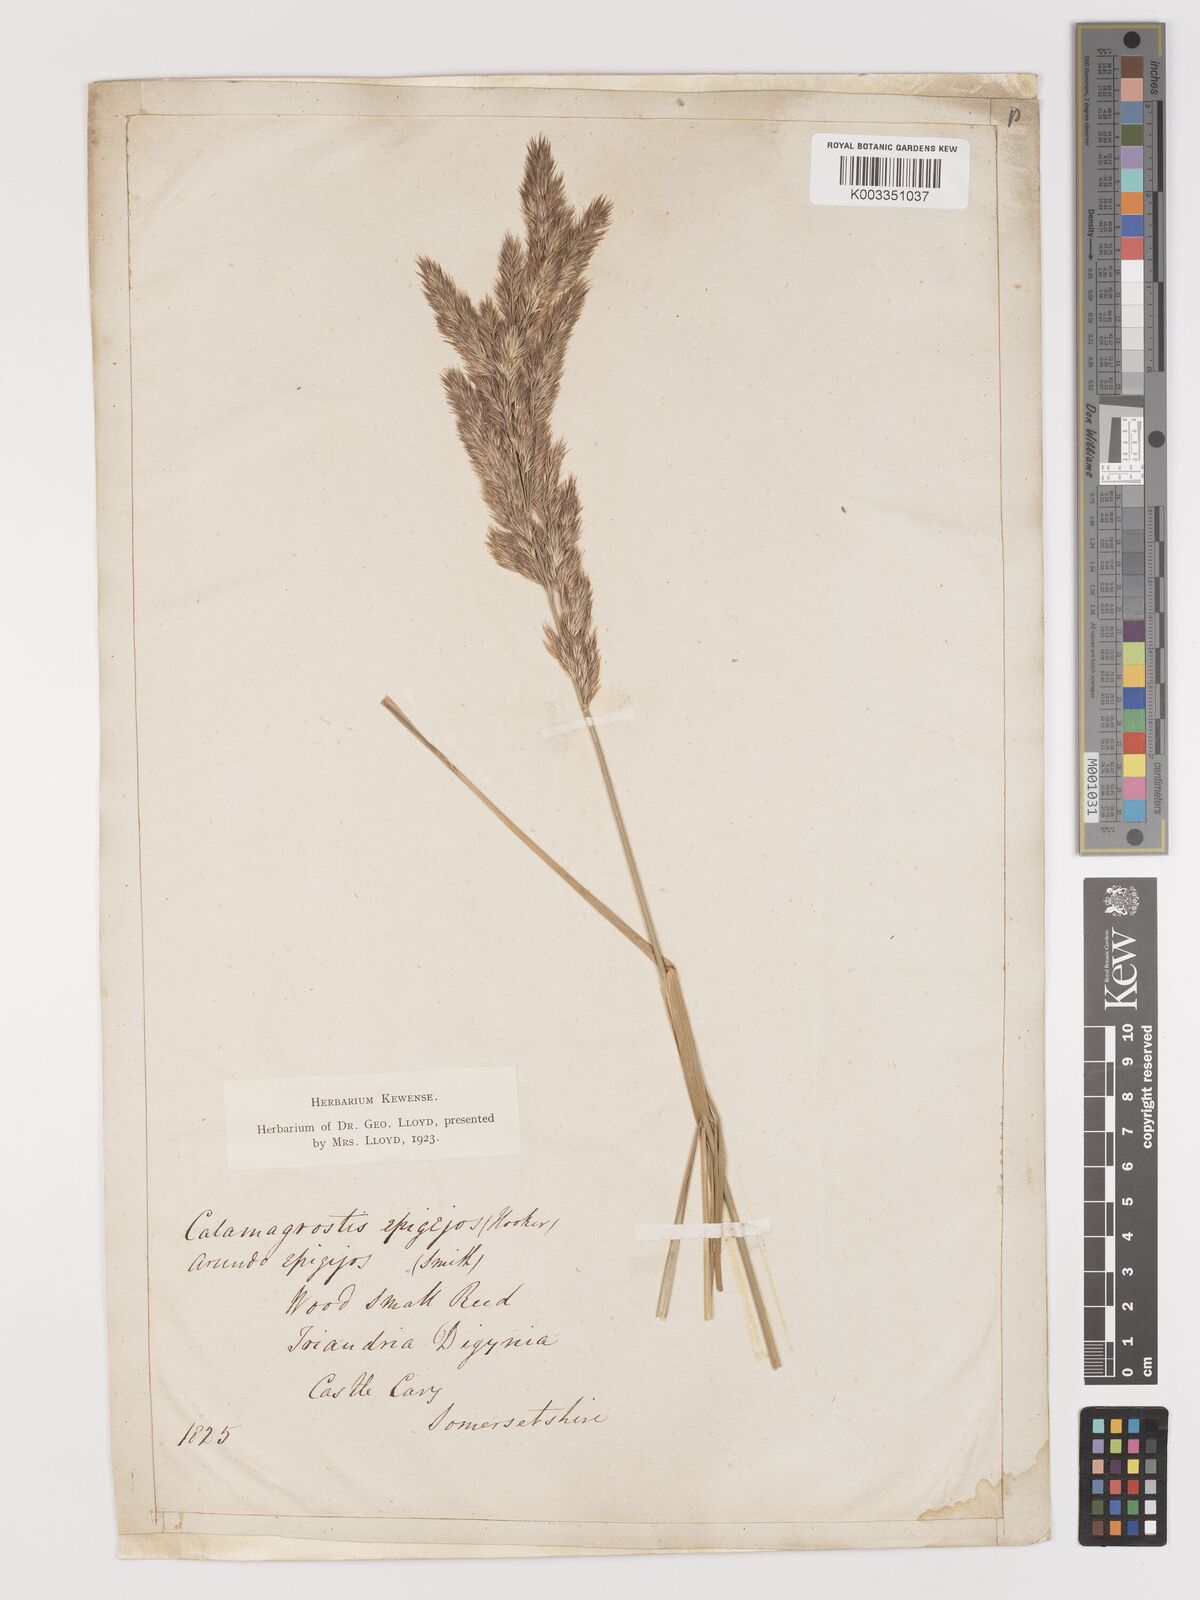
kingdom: Plantae
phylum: Tracheophyta
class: Liliopsida
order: Poales
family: Poaceae
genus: Calamagrostis
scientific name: Calamagrostis epigejos
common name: Wood small-reed
